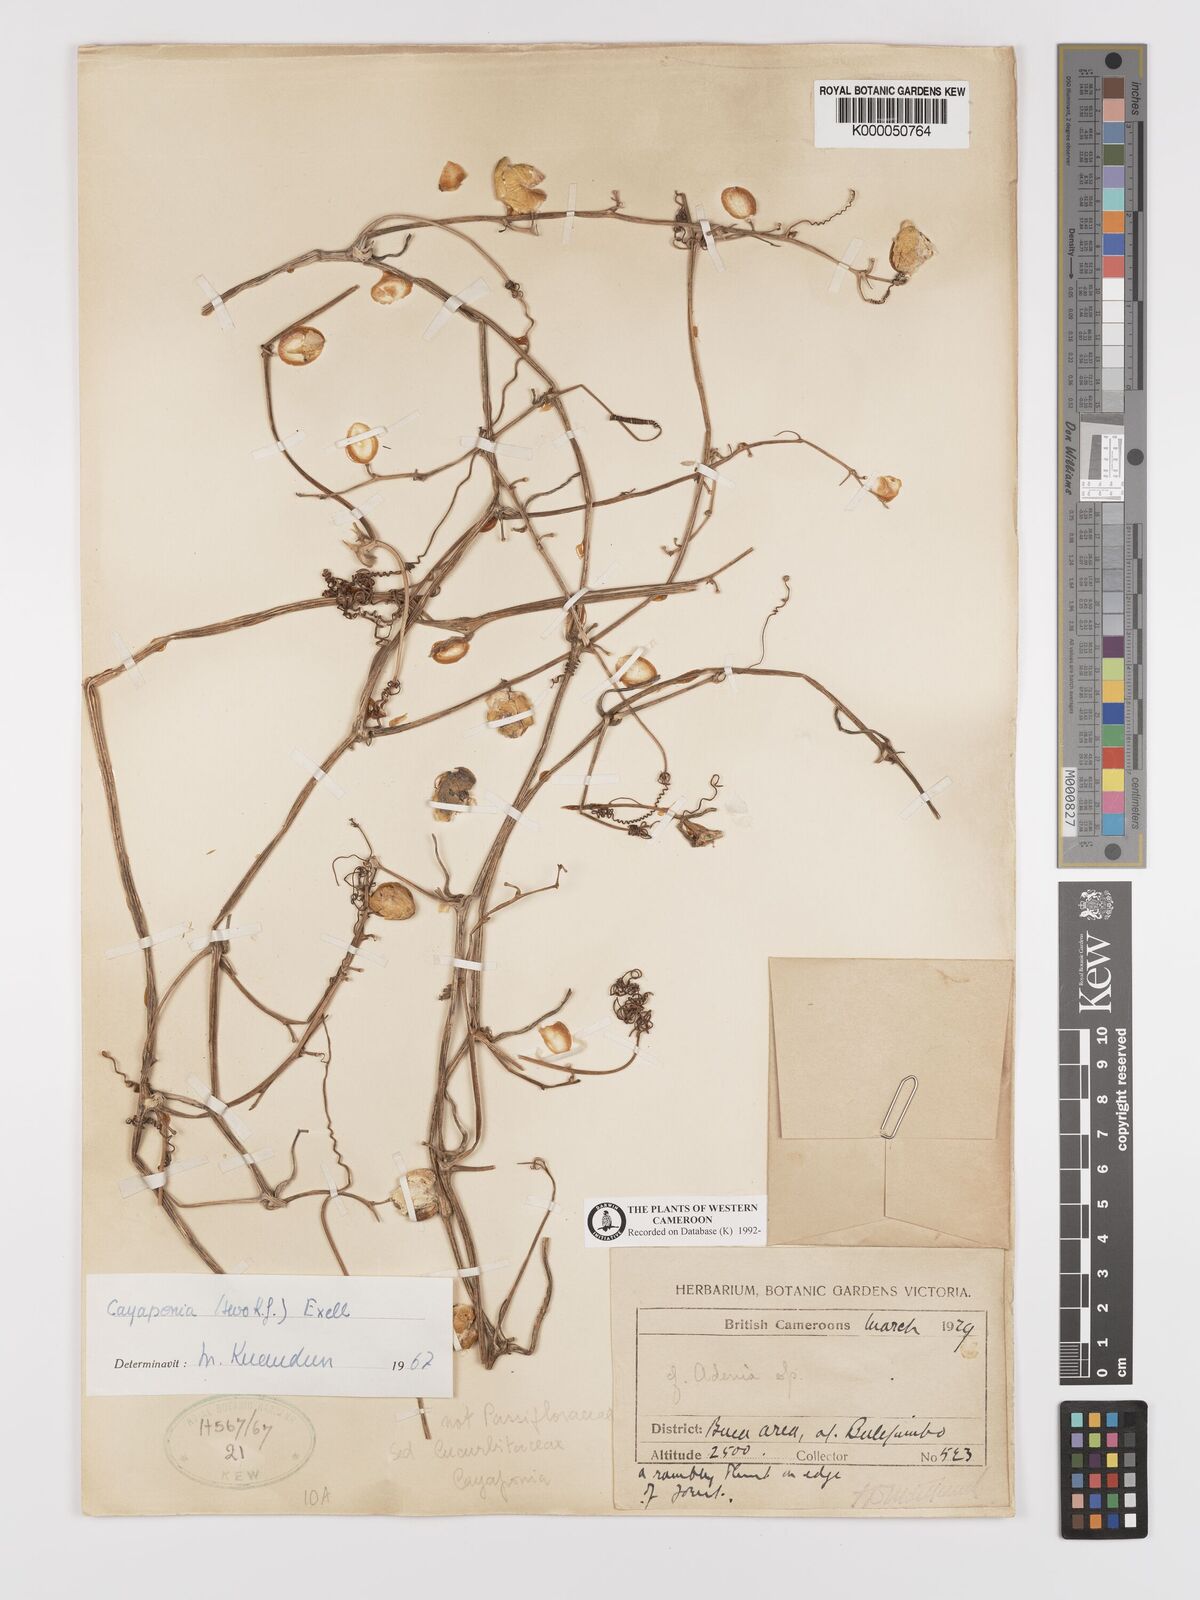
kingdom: Plantae
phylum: Tracheophyta
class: Magnoliopsida
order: Cucurbitales
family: Cucurbitaceae
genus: Cayaponia
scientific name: Cayaponia africana
